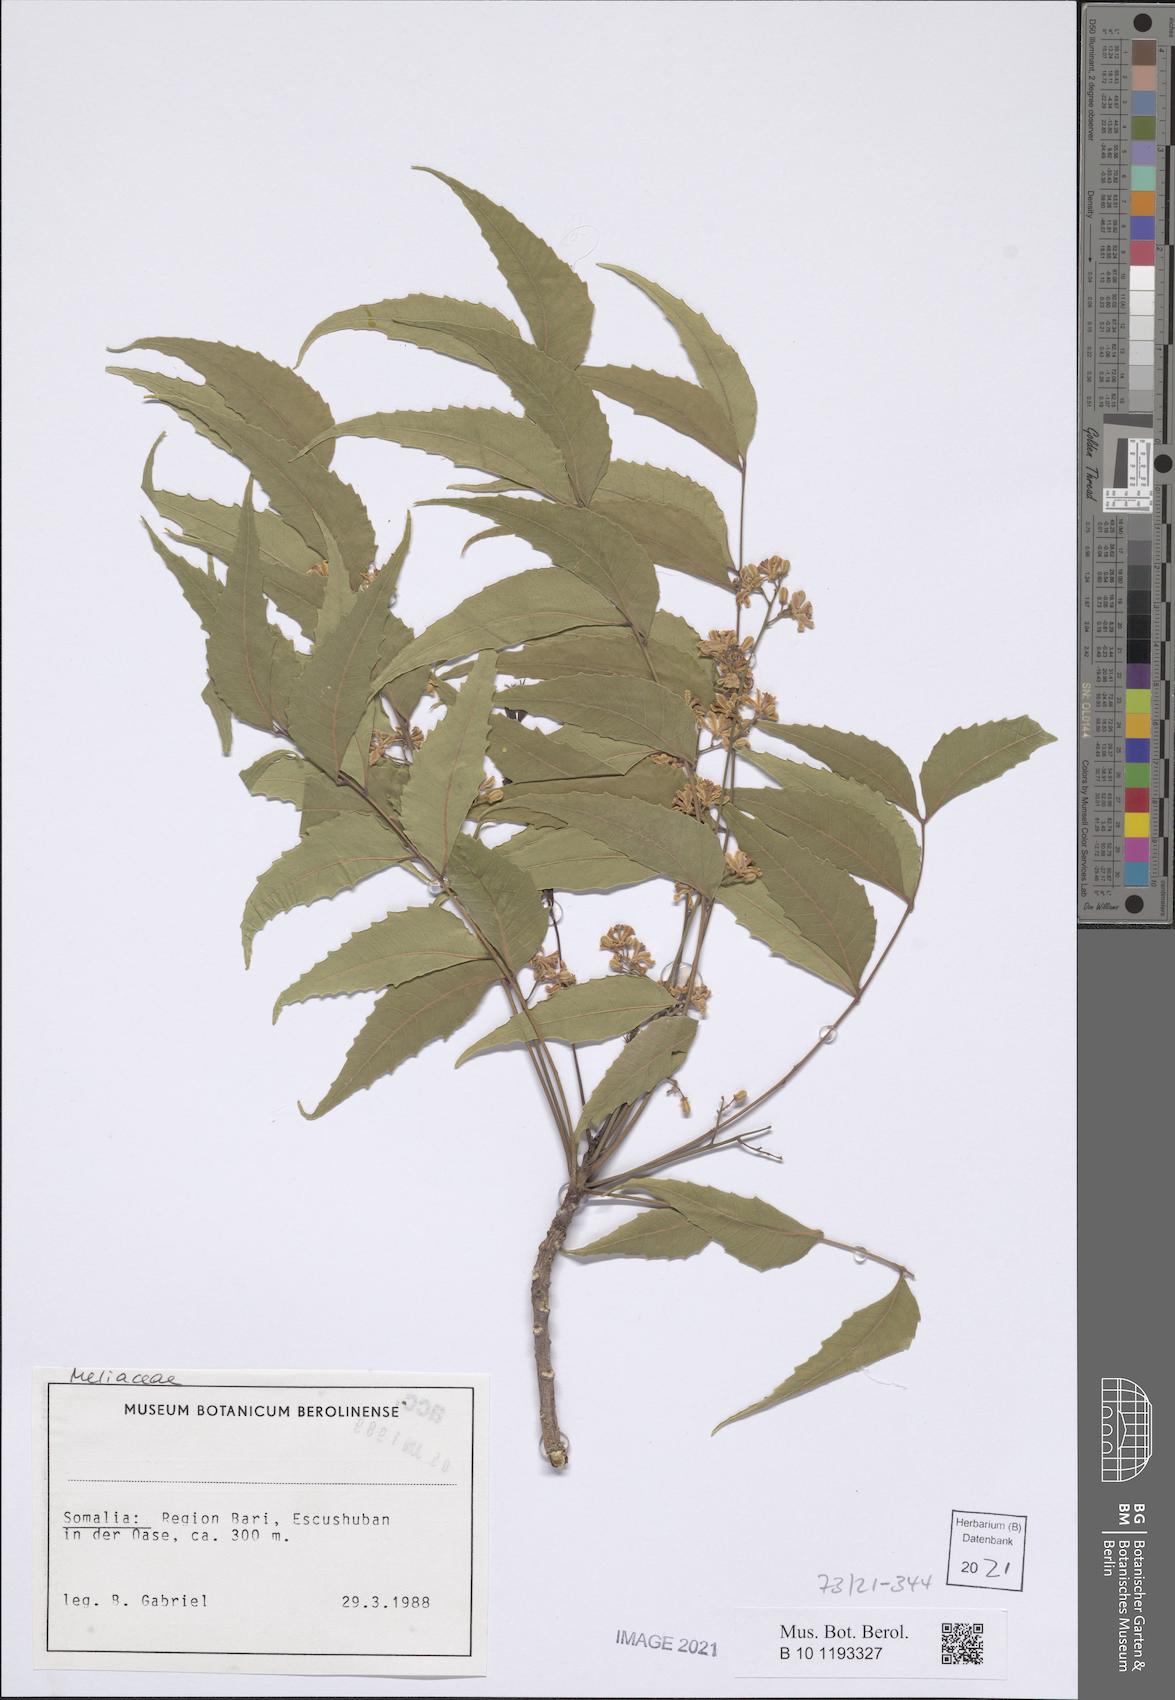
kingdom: Plantae
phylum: Tracheophyta
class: Magnoliopsida
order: Sapindales
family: Meliaceae
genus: Azadirachta
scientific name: Azadirachta indica
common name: Neem
